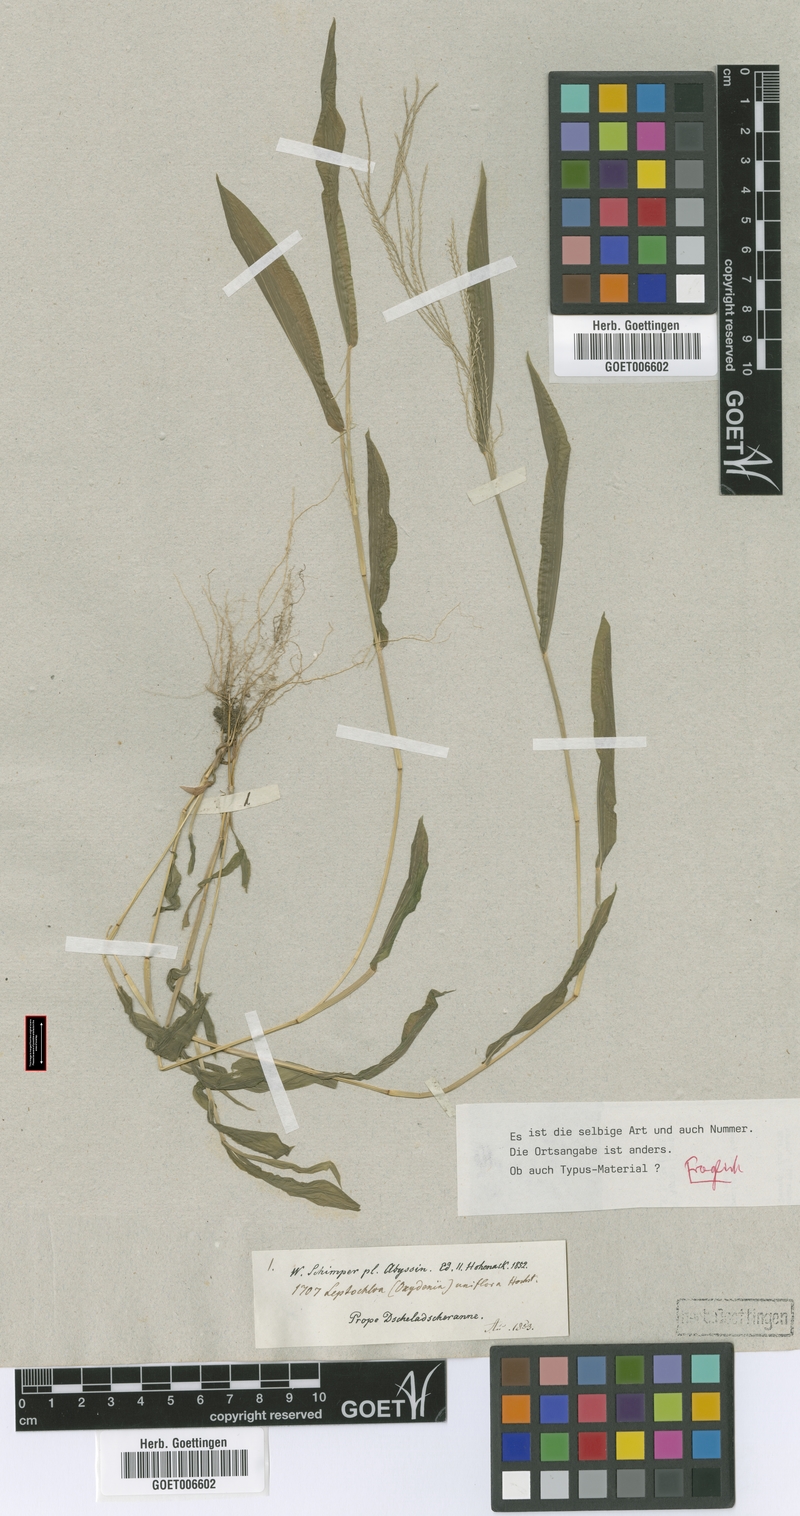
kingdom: Plantae
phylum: Tracheophyta
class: Liliopsida
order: Poales
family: Poaceae
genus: Trigonochloa
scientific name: Trigonochloa uniflora
